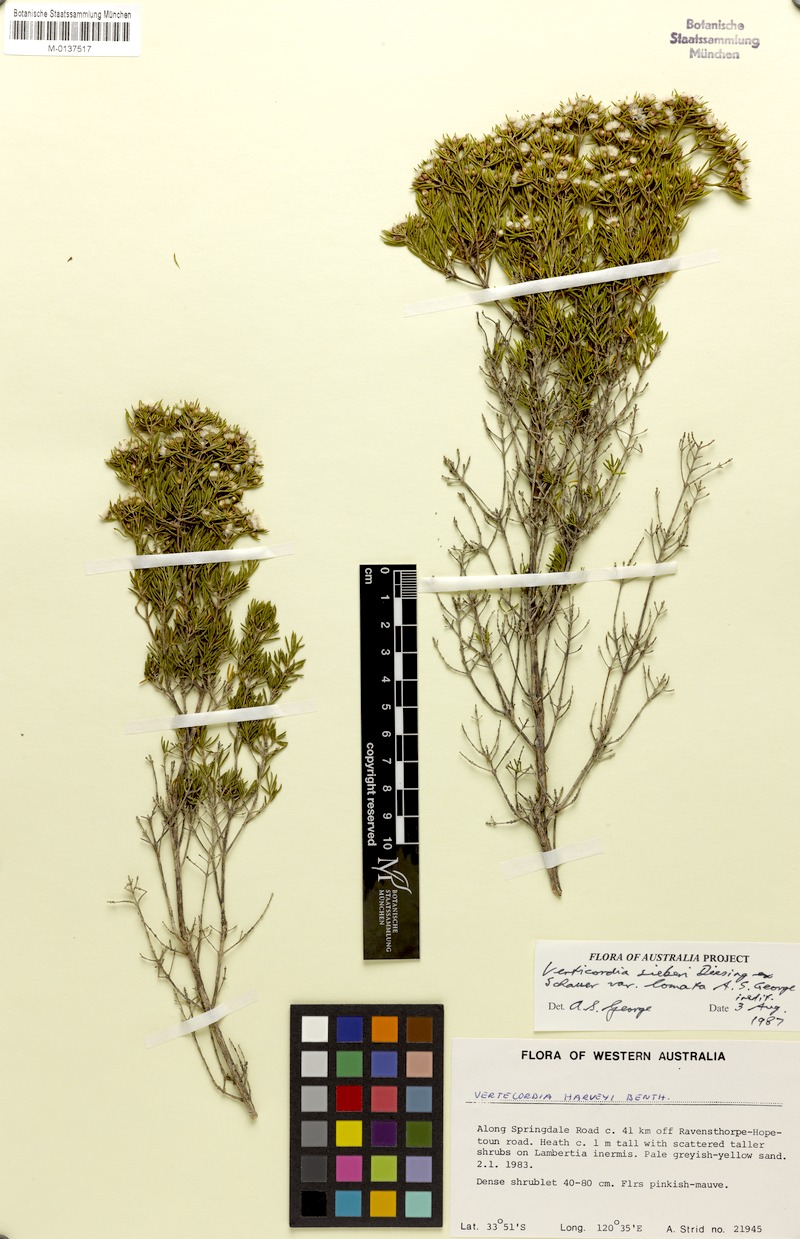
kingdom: Plantae
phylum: Tracheophyta
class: Magnoliopsida
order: Myrtales
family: Myrtaceae
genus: Verticordia
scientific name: Verticordia sieberi
